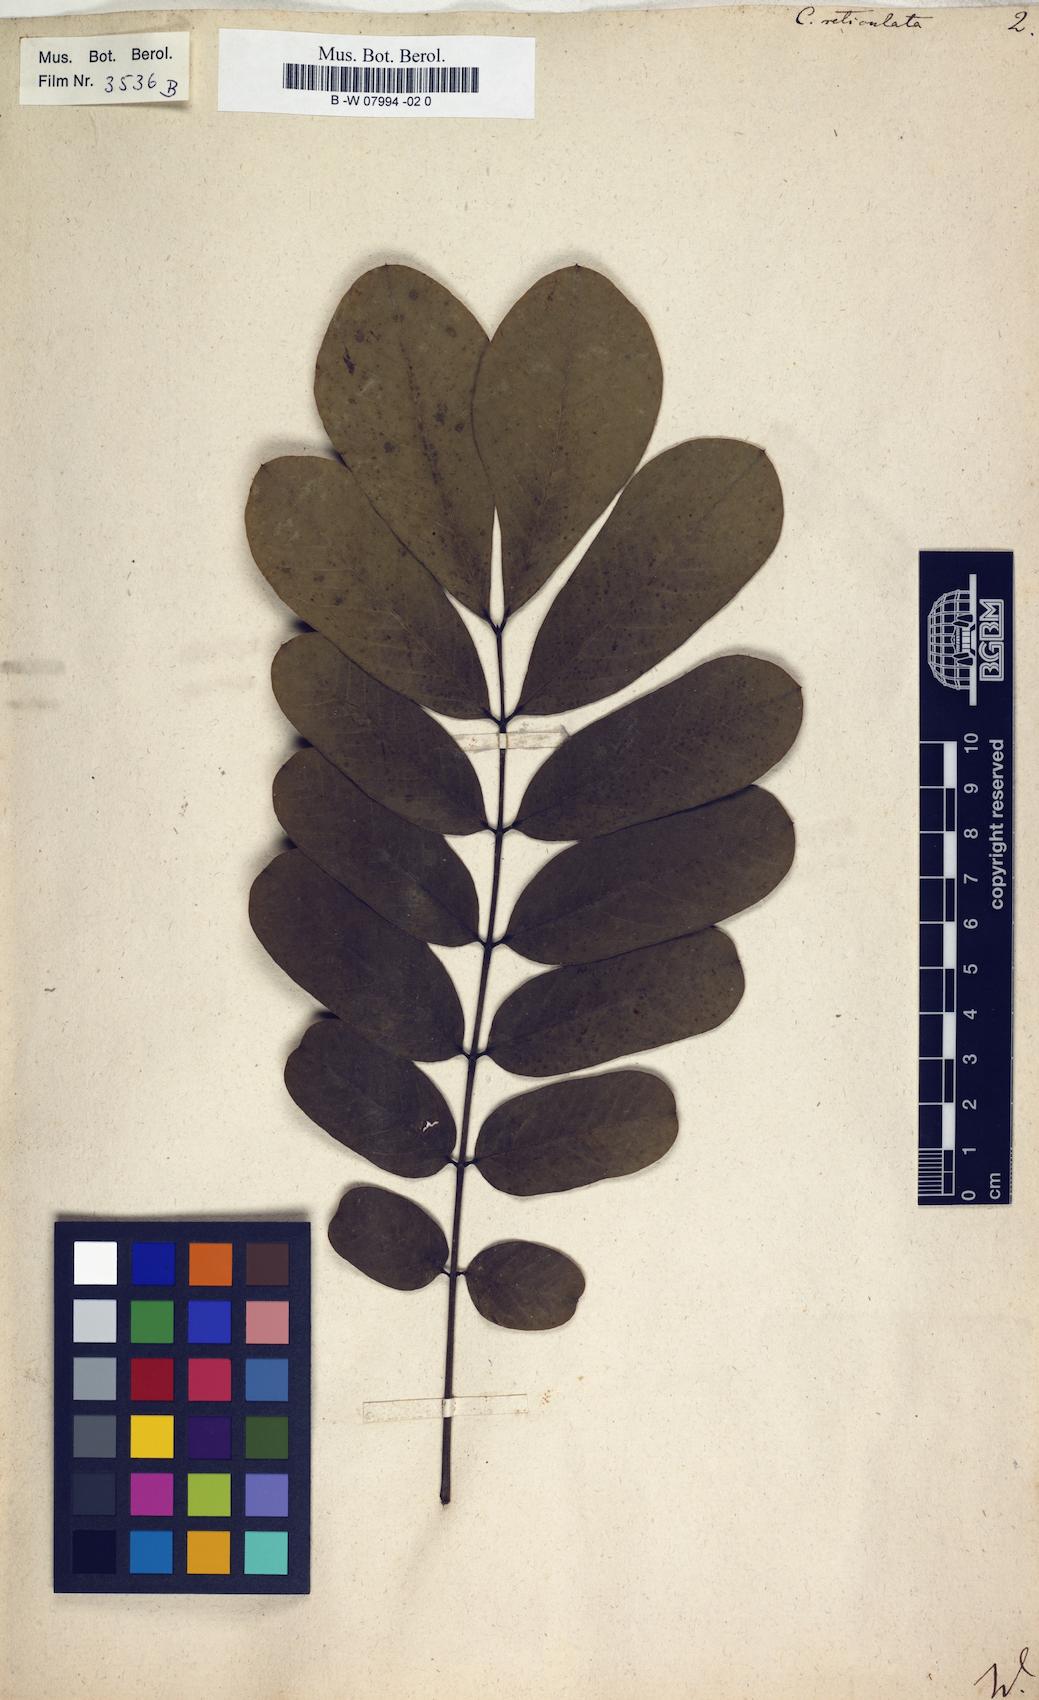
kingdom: Plantae
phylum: Tracheophyta
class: Magnoliopsida
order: Fabales
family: Fabaceae
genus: Senna
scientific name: Senna reticulata
